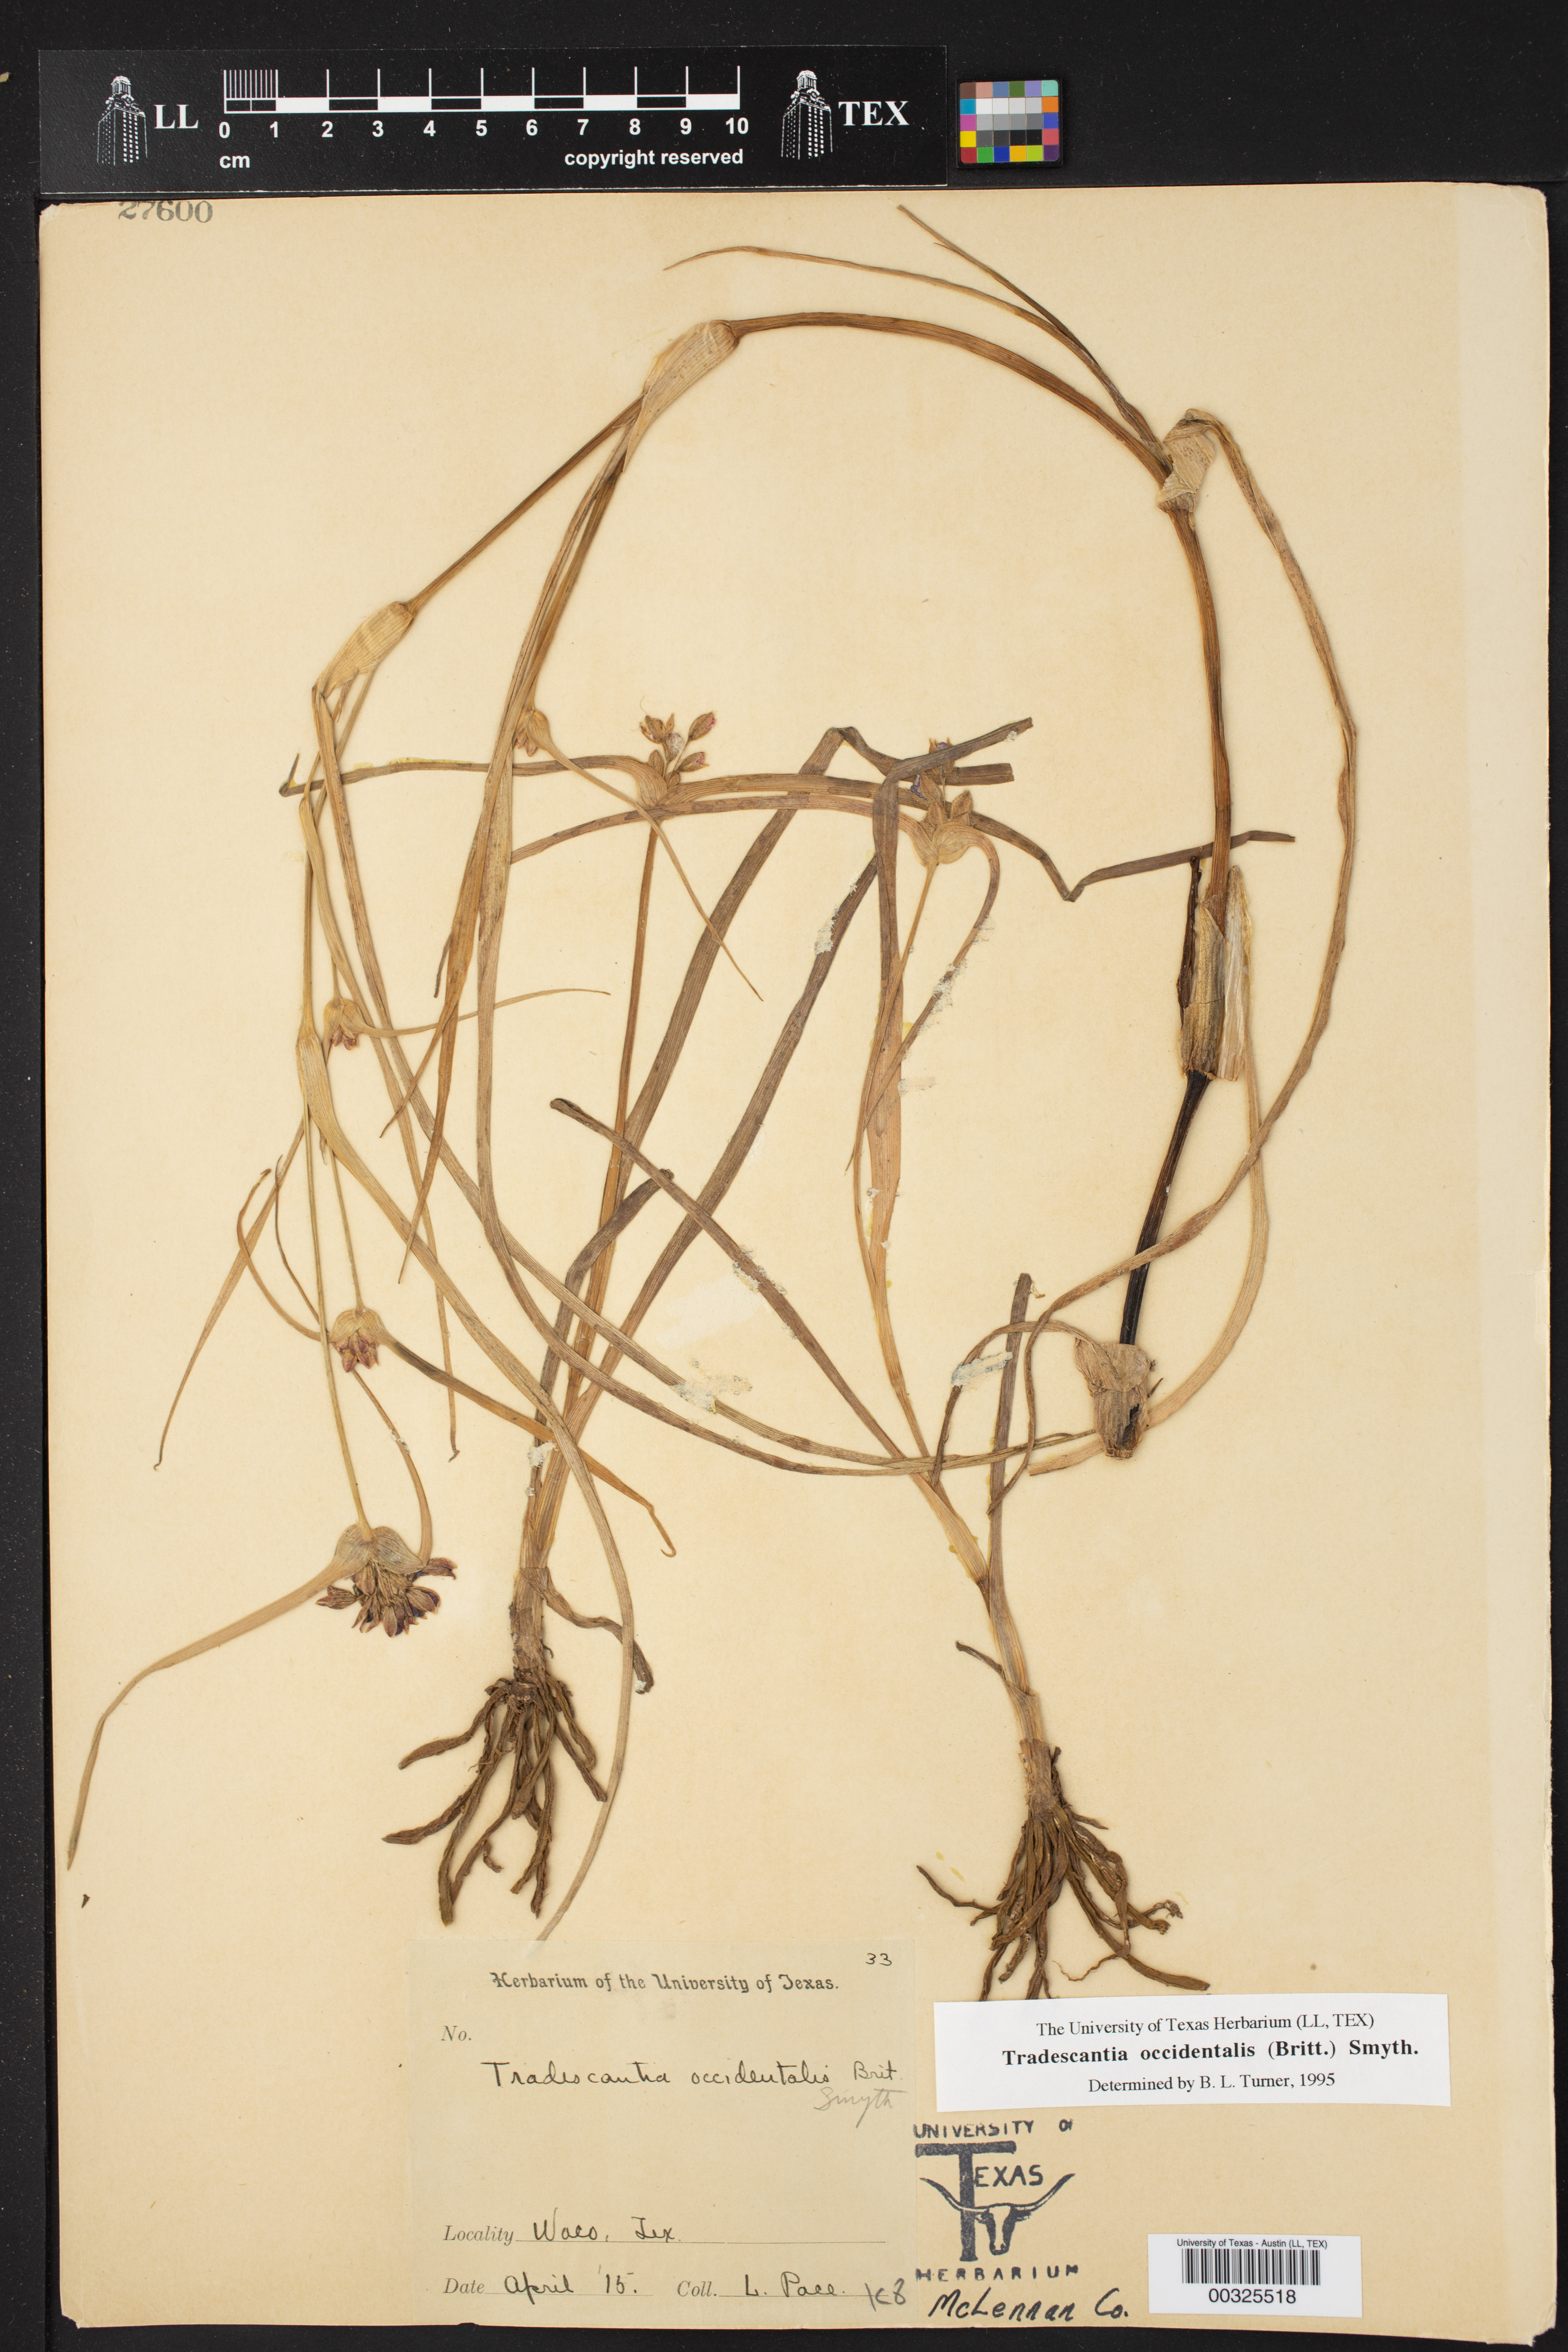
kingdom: Plantae
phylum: Tracheophyta
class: Liliopsida
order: Commelinales
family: Commelinaceae
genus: Tradescantia
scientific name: Tradescantia occidentalis
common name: Prairie spiderwort
